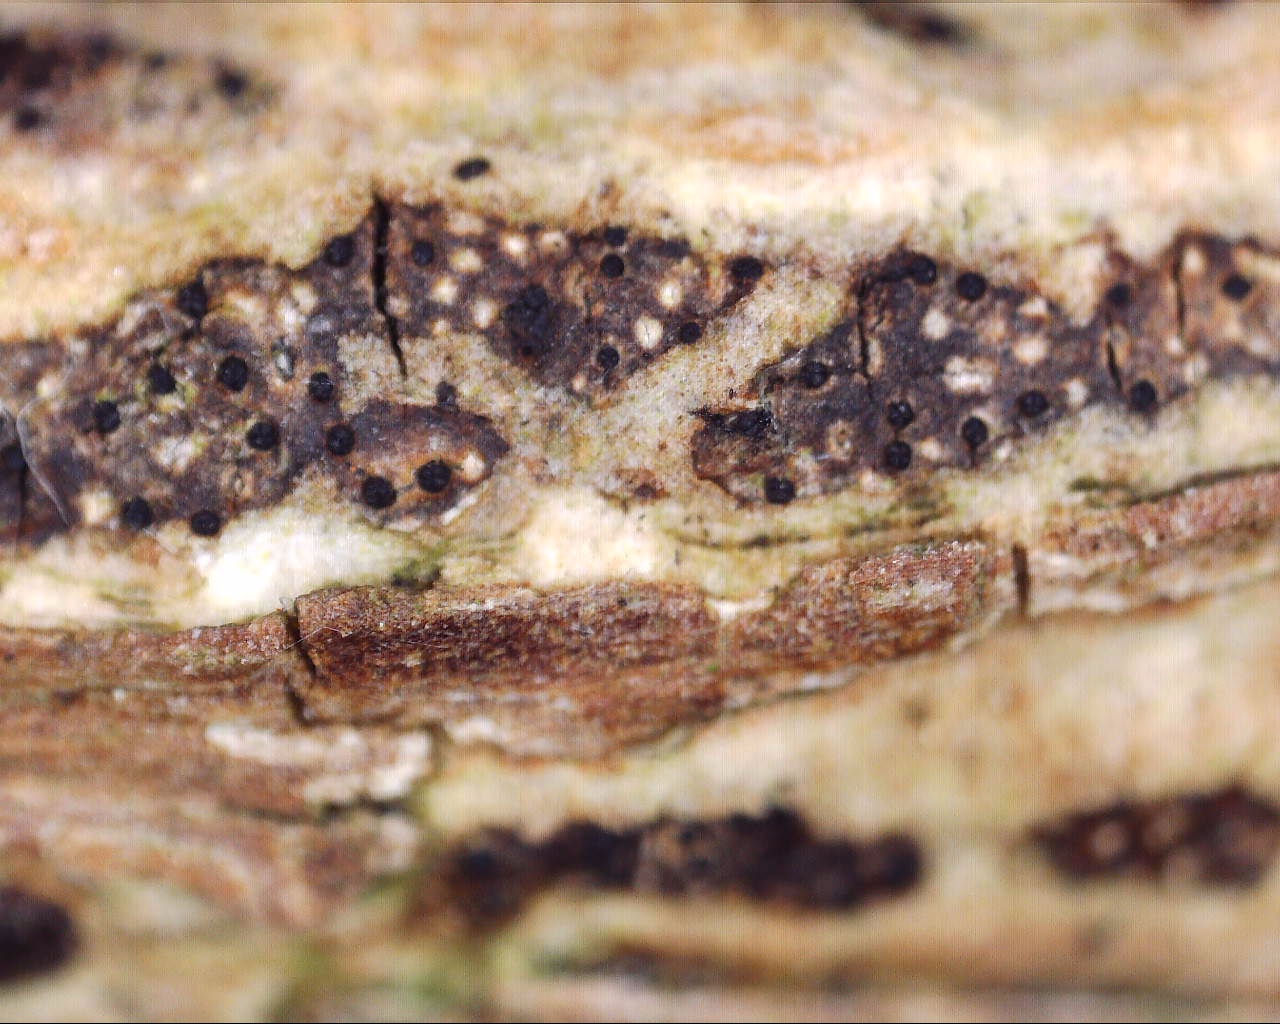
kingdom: Fungi
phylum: Ascomycota
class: Sordariomycetes
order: Xylariales
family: Diatrypaceae
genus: Eutypa
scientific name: Eutypa
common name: kulskorpe
